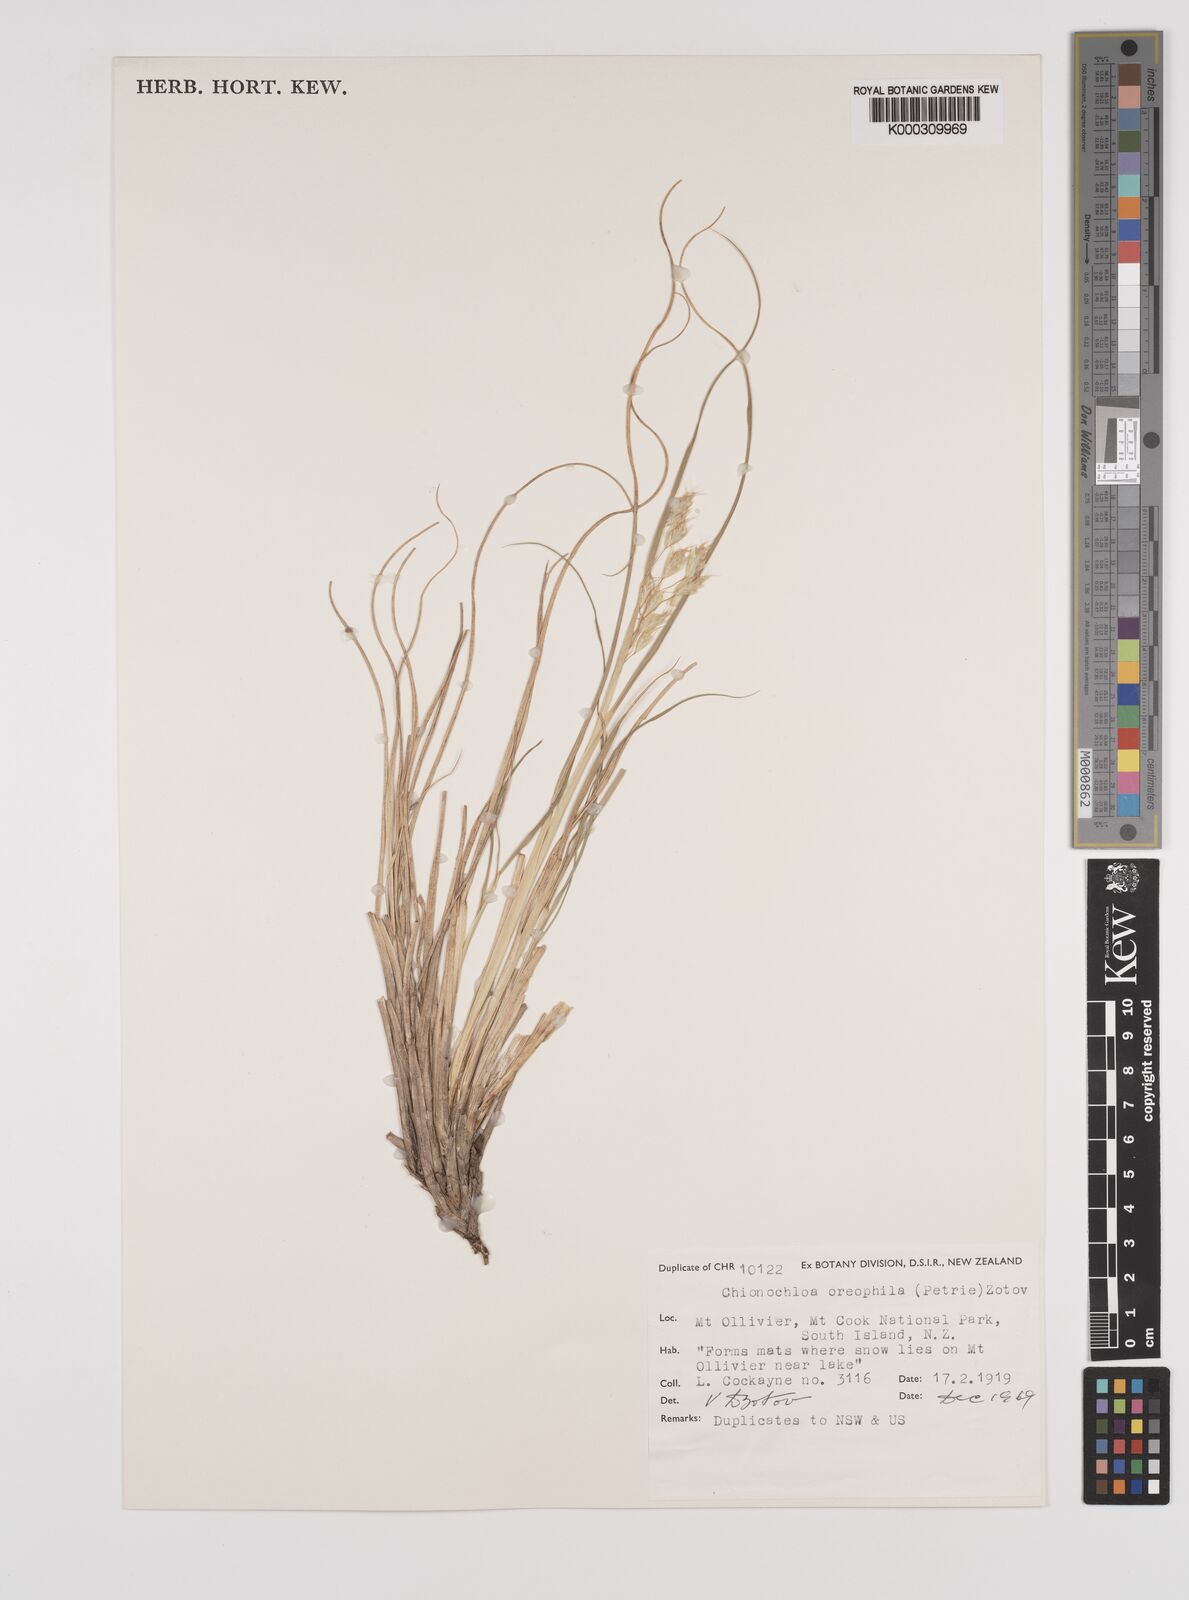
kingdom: Plantae
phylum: Tracheophyta
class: Liliopsida
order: Poales
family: Poaceae
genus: Chionochloa
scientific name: Chionochloa oreophila
